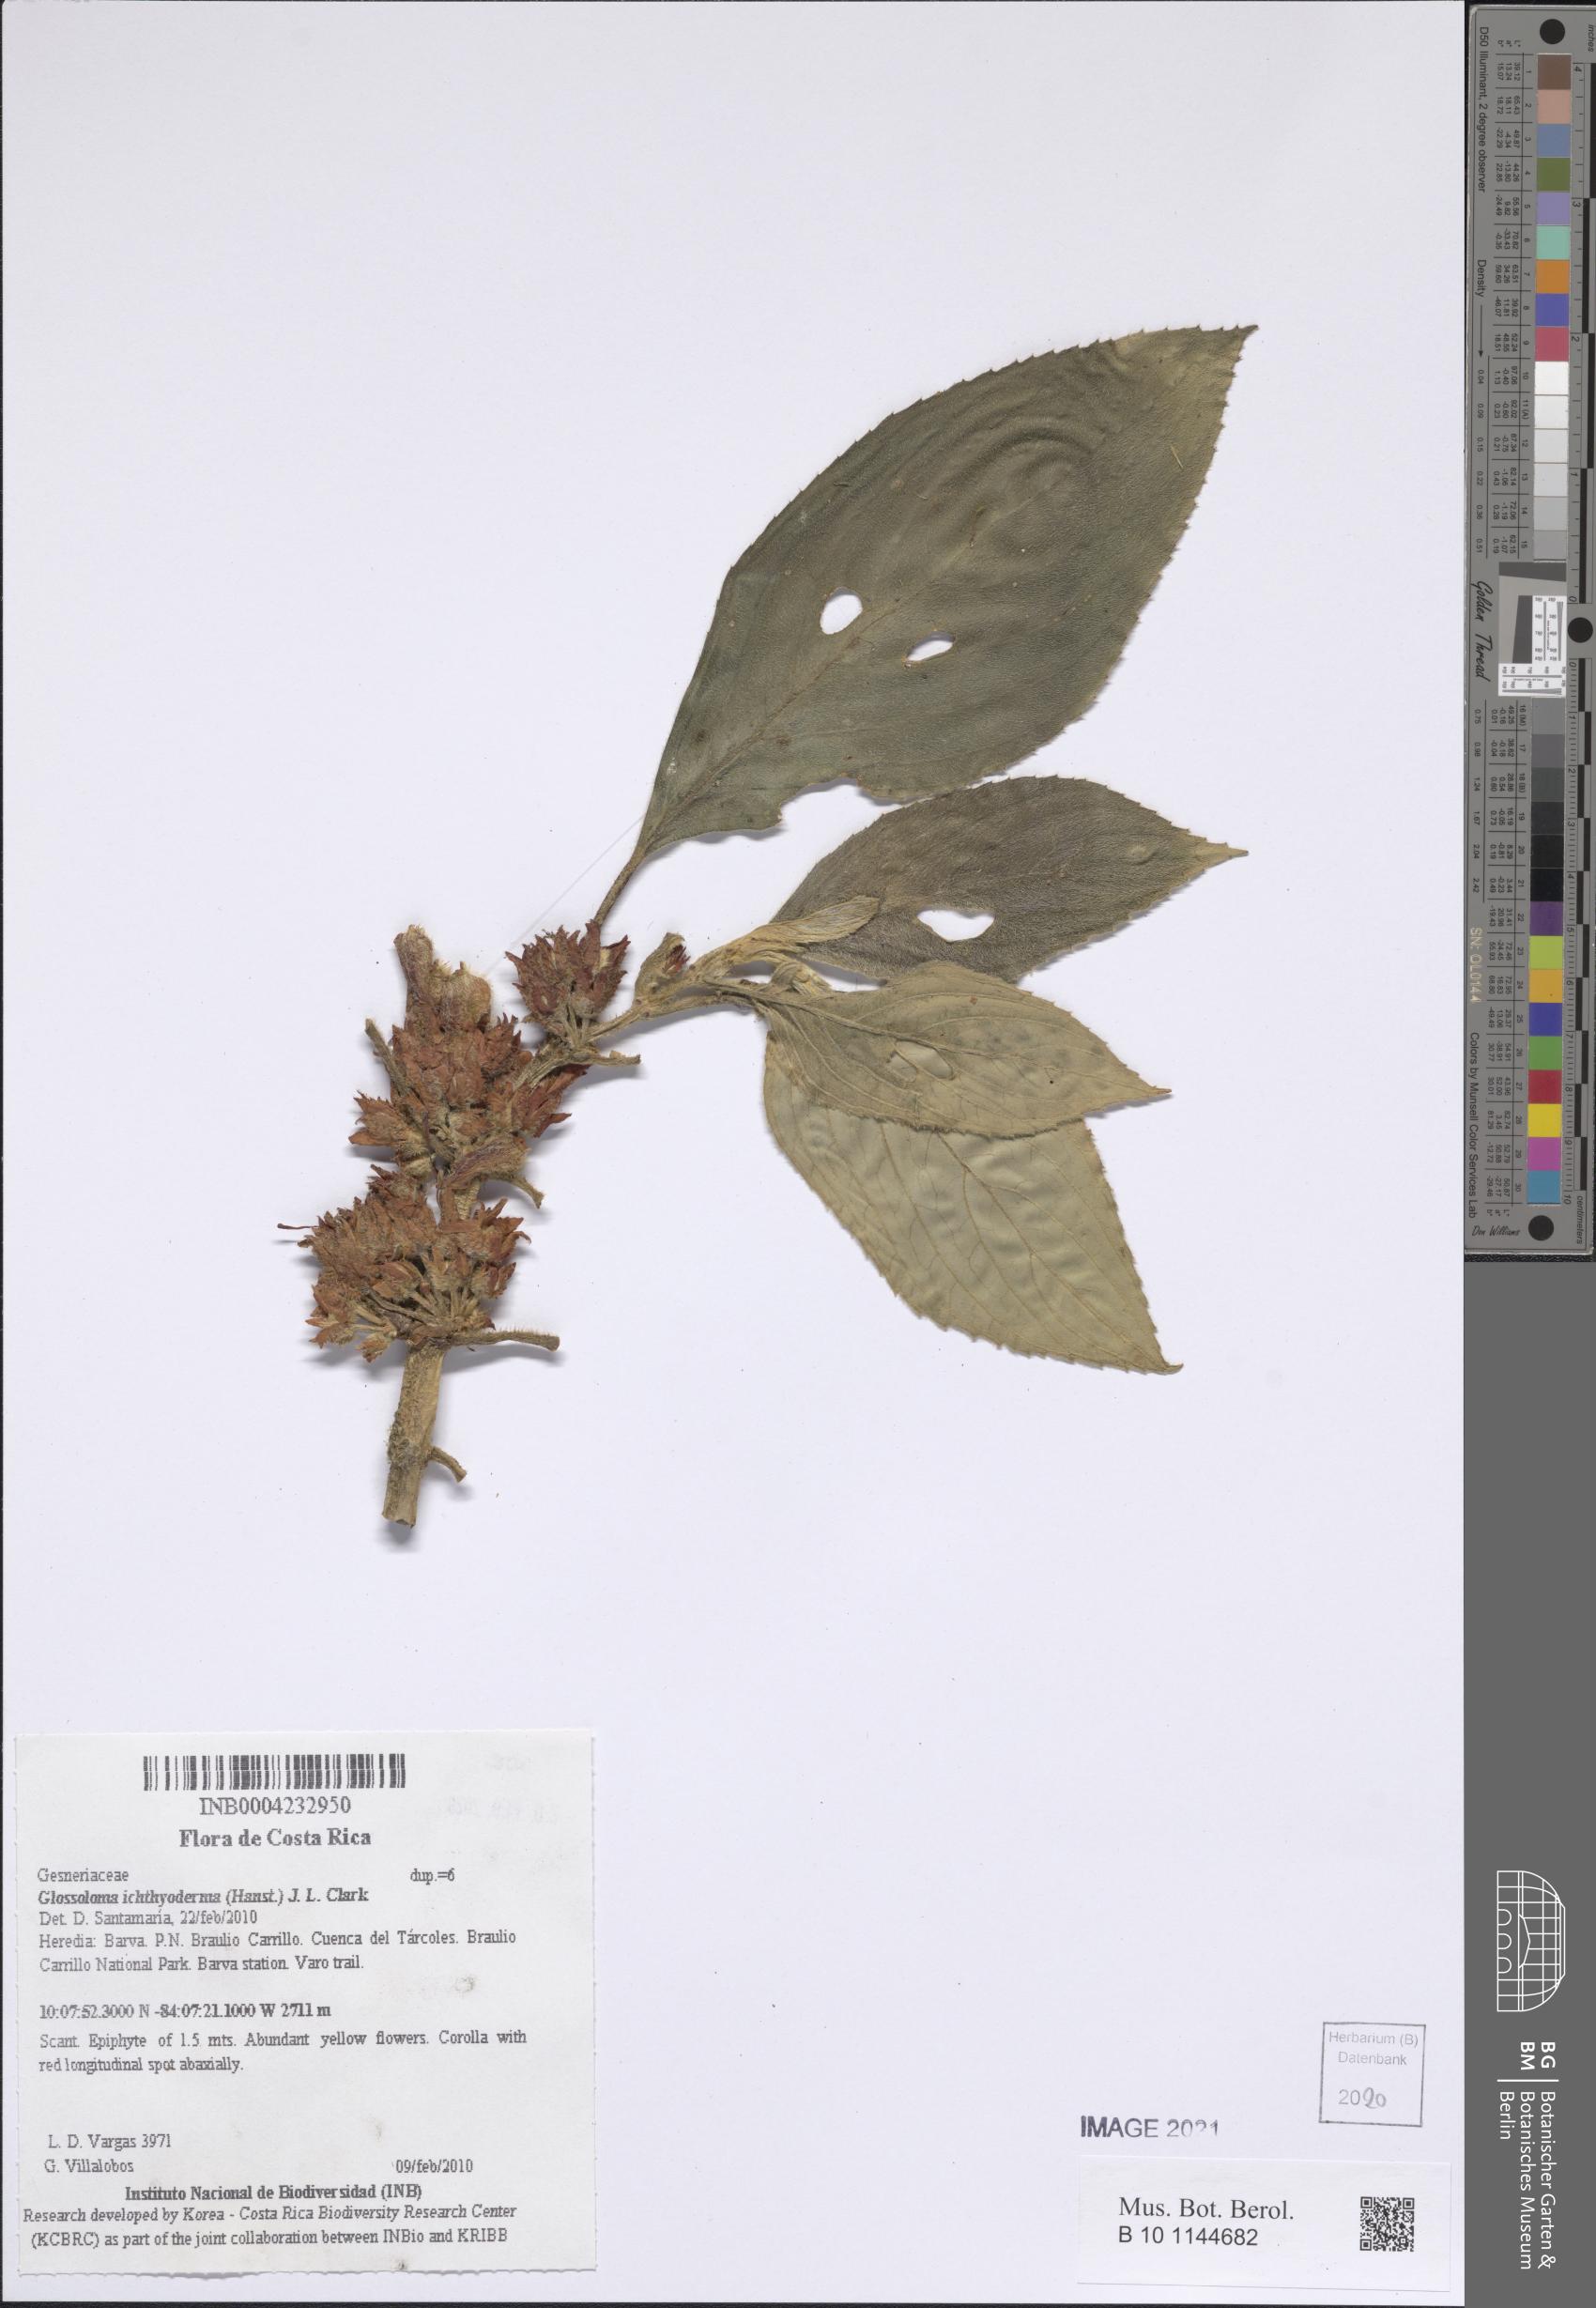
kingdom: Plantae
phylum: Tracheophyta
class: Magnoliopsida
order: Lamiales
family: Gesneriaceae
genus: Glossoloma
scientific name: Glossoloma ichthyoderma
